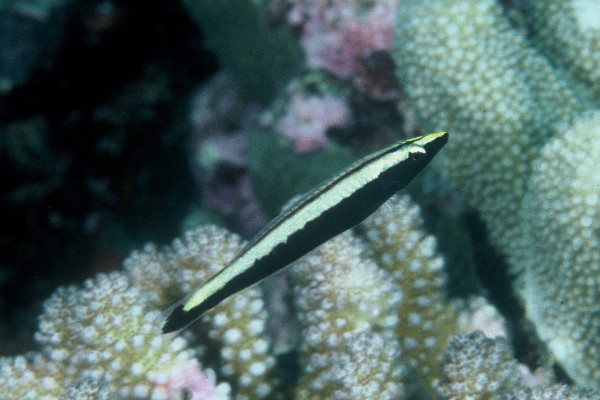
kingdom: Animalia
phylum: Chordata
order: Perciformes
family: Labridae
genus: Hologymnosus
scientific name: Hologymnosus annulatus
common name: Ring wrasse
